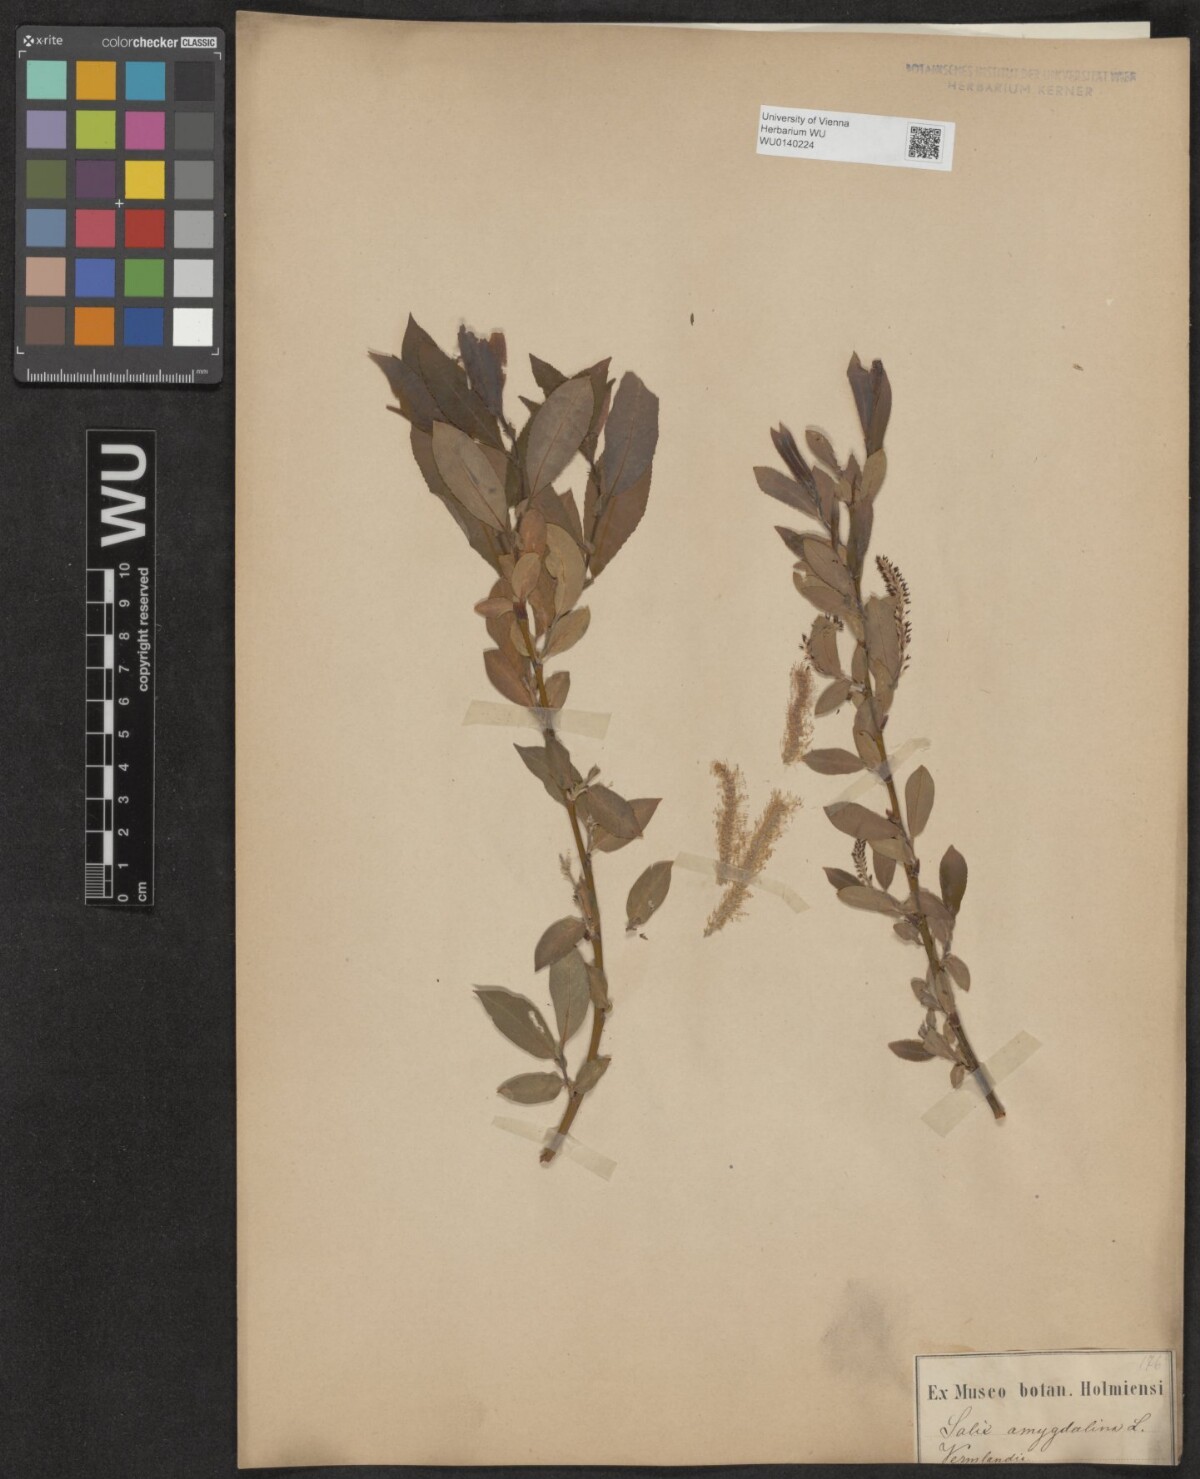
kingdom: Plantae
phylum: Tracheophyta
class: Magnoliopsida
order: Malpighiales
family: Salicaceae
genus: Salix
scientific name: Salix triandra
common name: Almond willow
